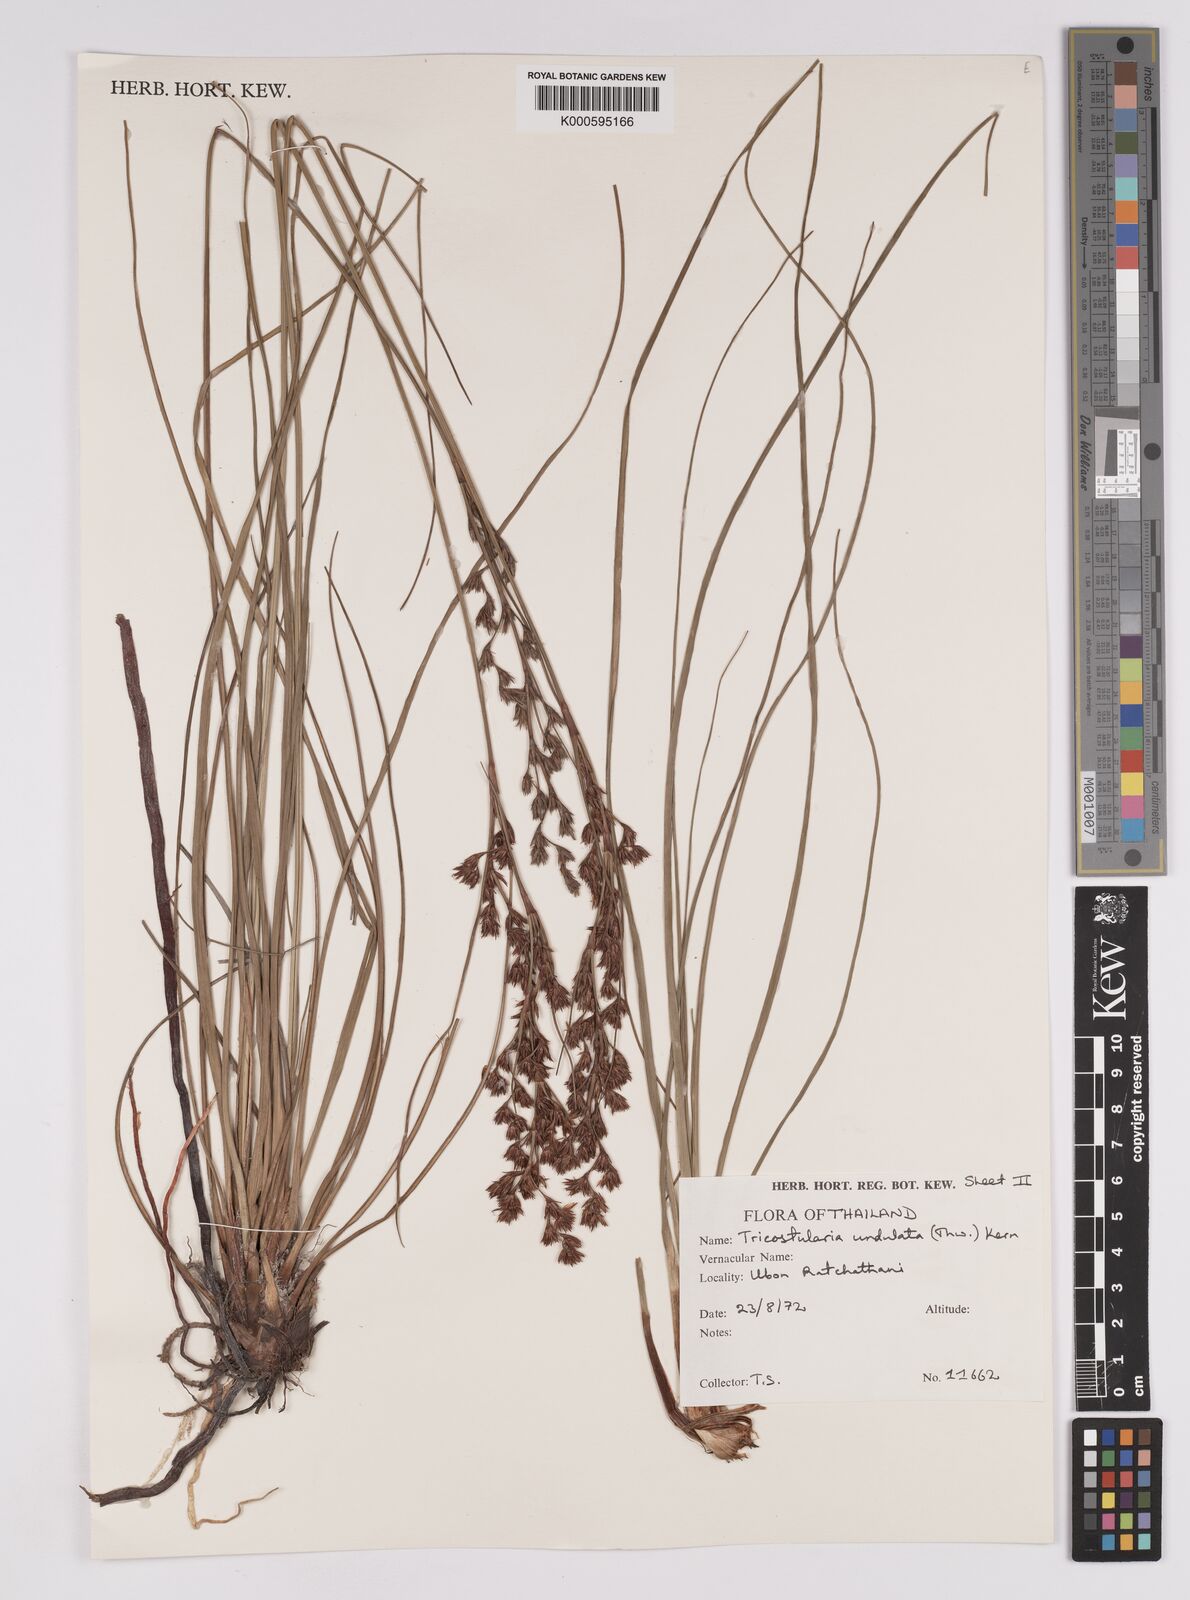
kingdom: Plantae
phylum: Tracheophyta
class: Liliopsida
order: Poales
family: Cyperaceae
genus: Anthelepis
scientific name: Anthelepis undulata
